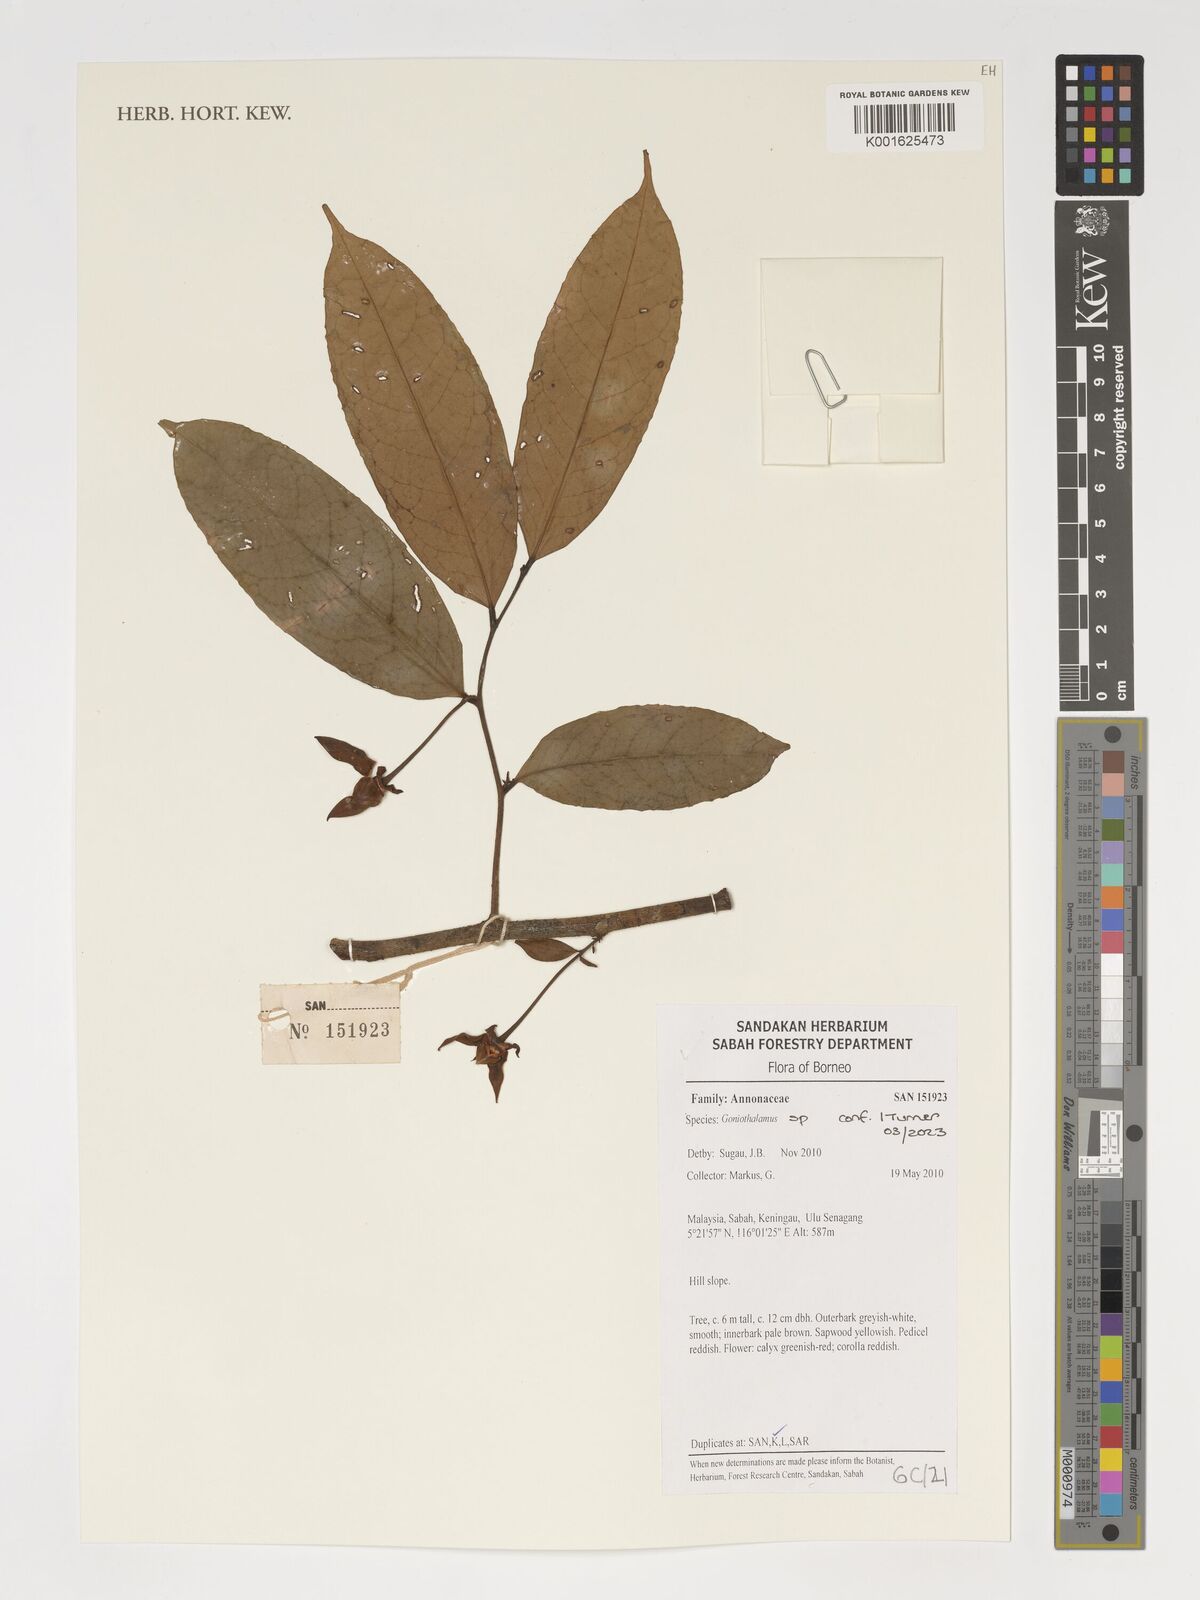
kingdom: Plantae
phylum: Tracheophyta
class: Magnoliopsida
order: Magnoliales
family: Annonaceae
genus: Goniothalamus
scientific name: Goniothalamus
